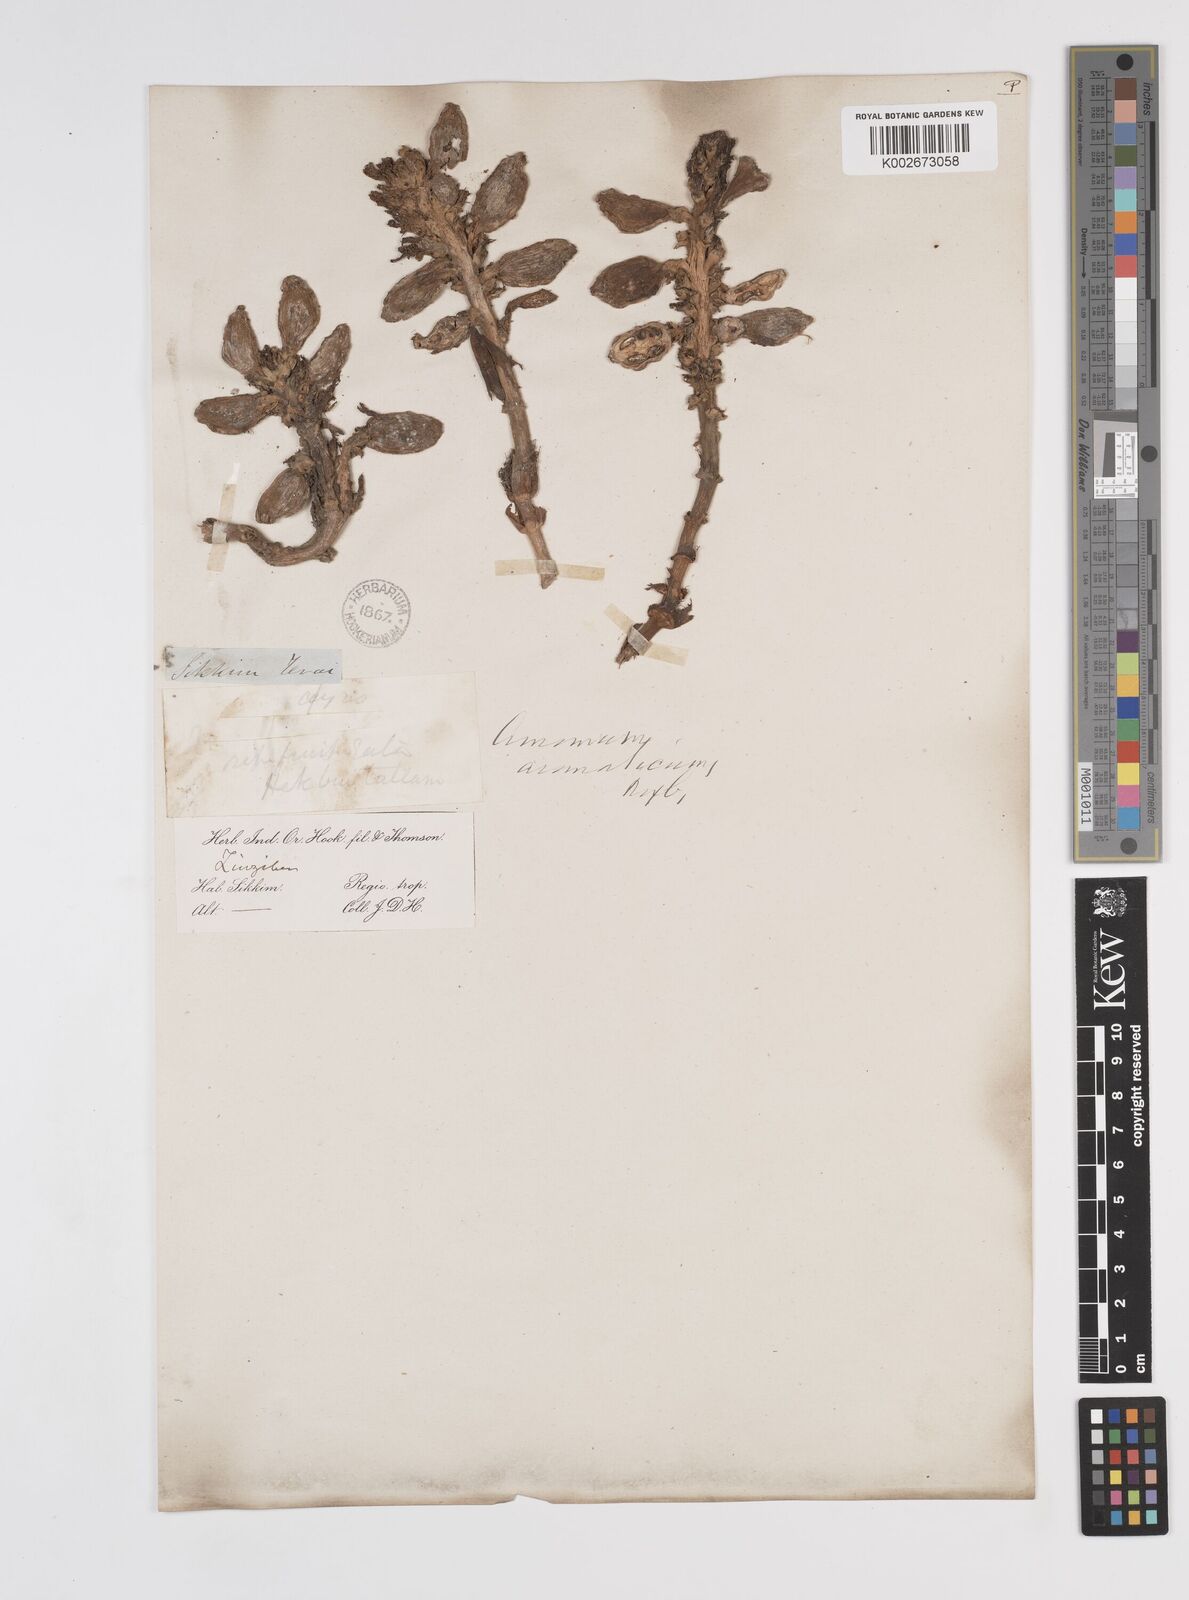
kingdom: Plantae
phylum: Tracheophyta
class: Liliopsida
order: Zingiberales
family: Zingiberaceae
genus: Wurfbainia
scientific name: Wurfbainia aromatica
